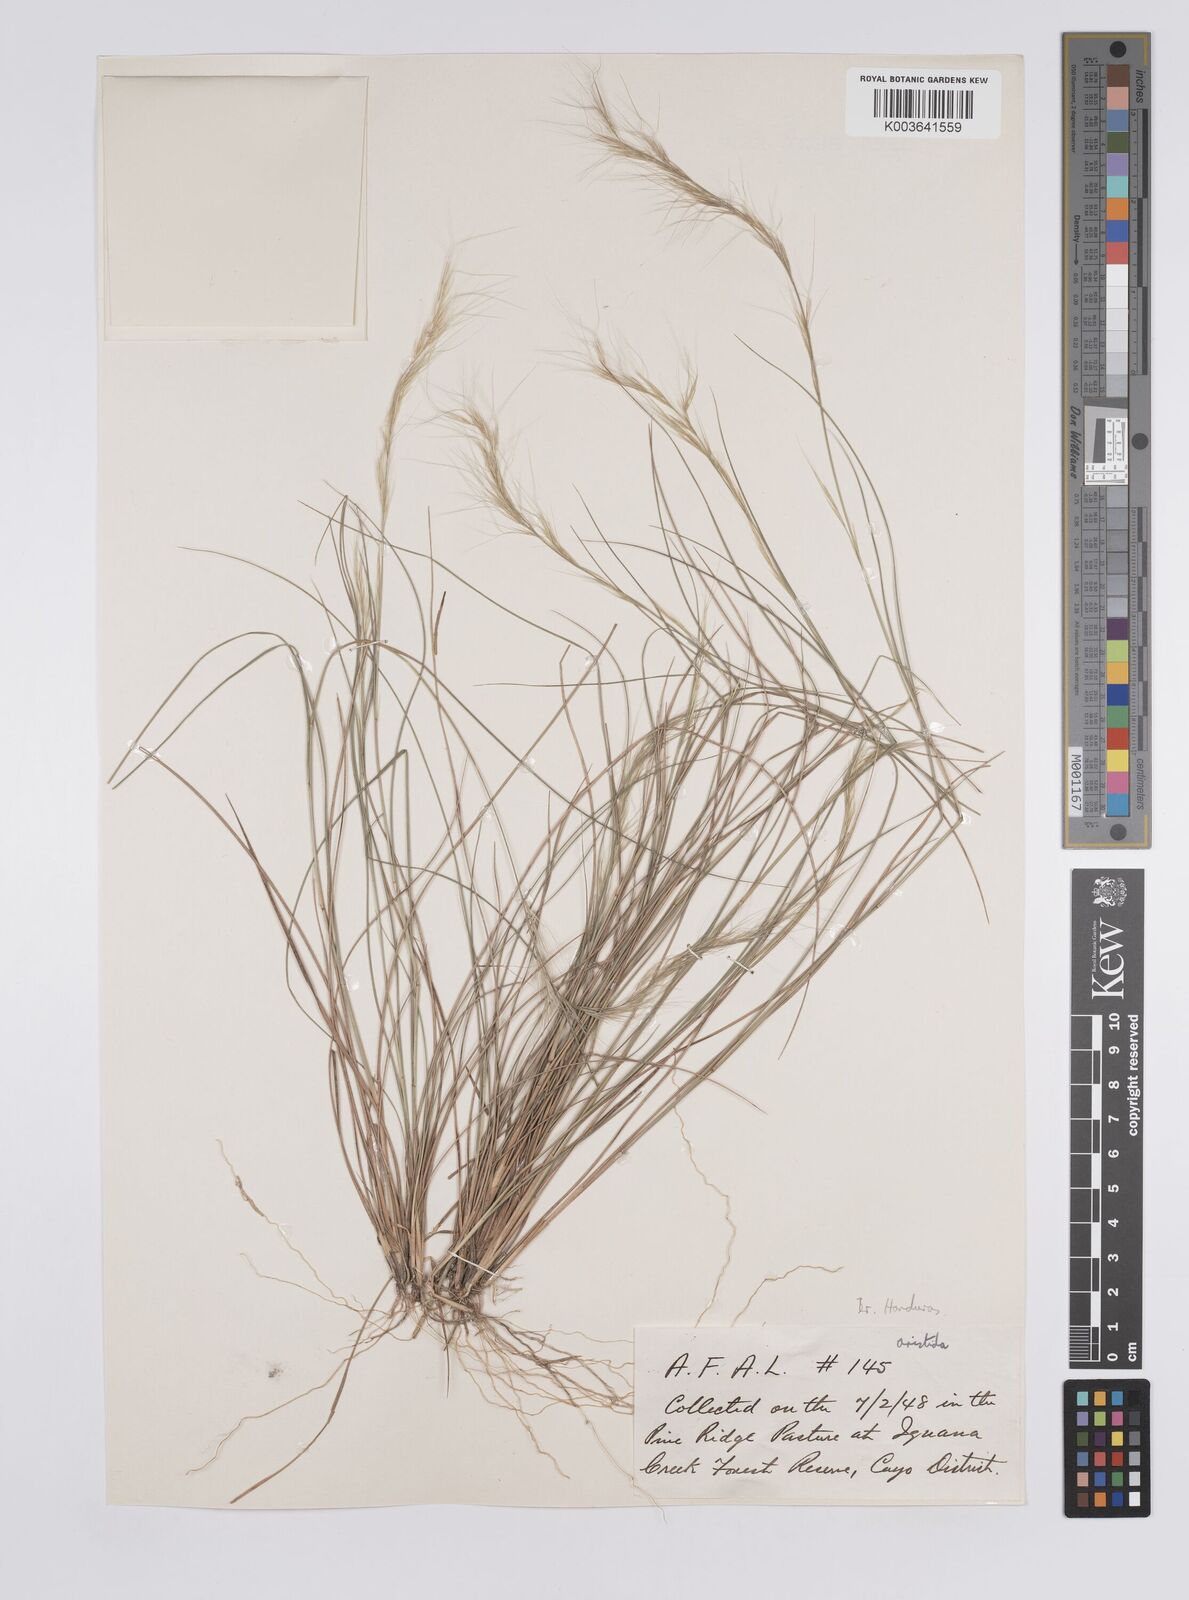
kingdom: Plantae
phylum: Tracheophyta
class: Liliopsida
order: Poales
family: Poaceae
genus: Aristida
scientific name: Aristida
